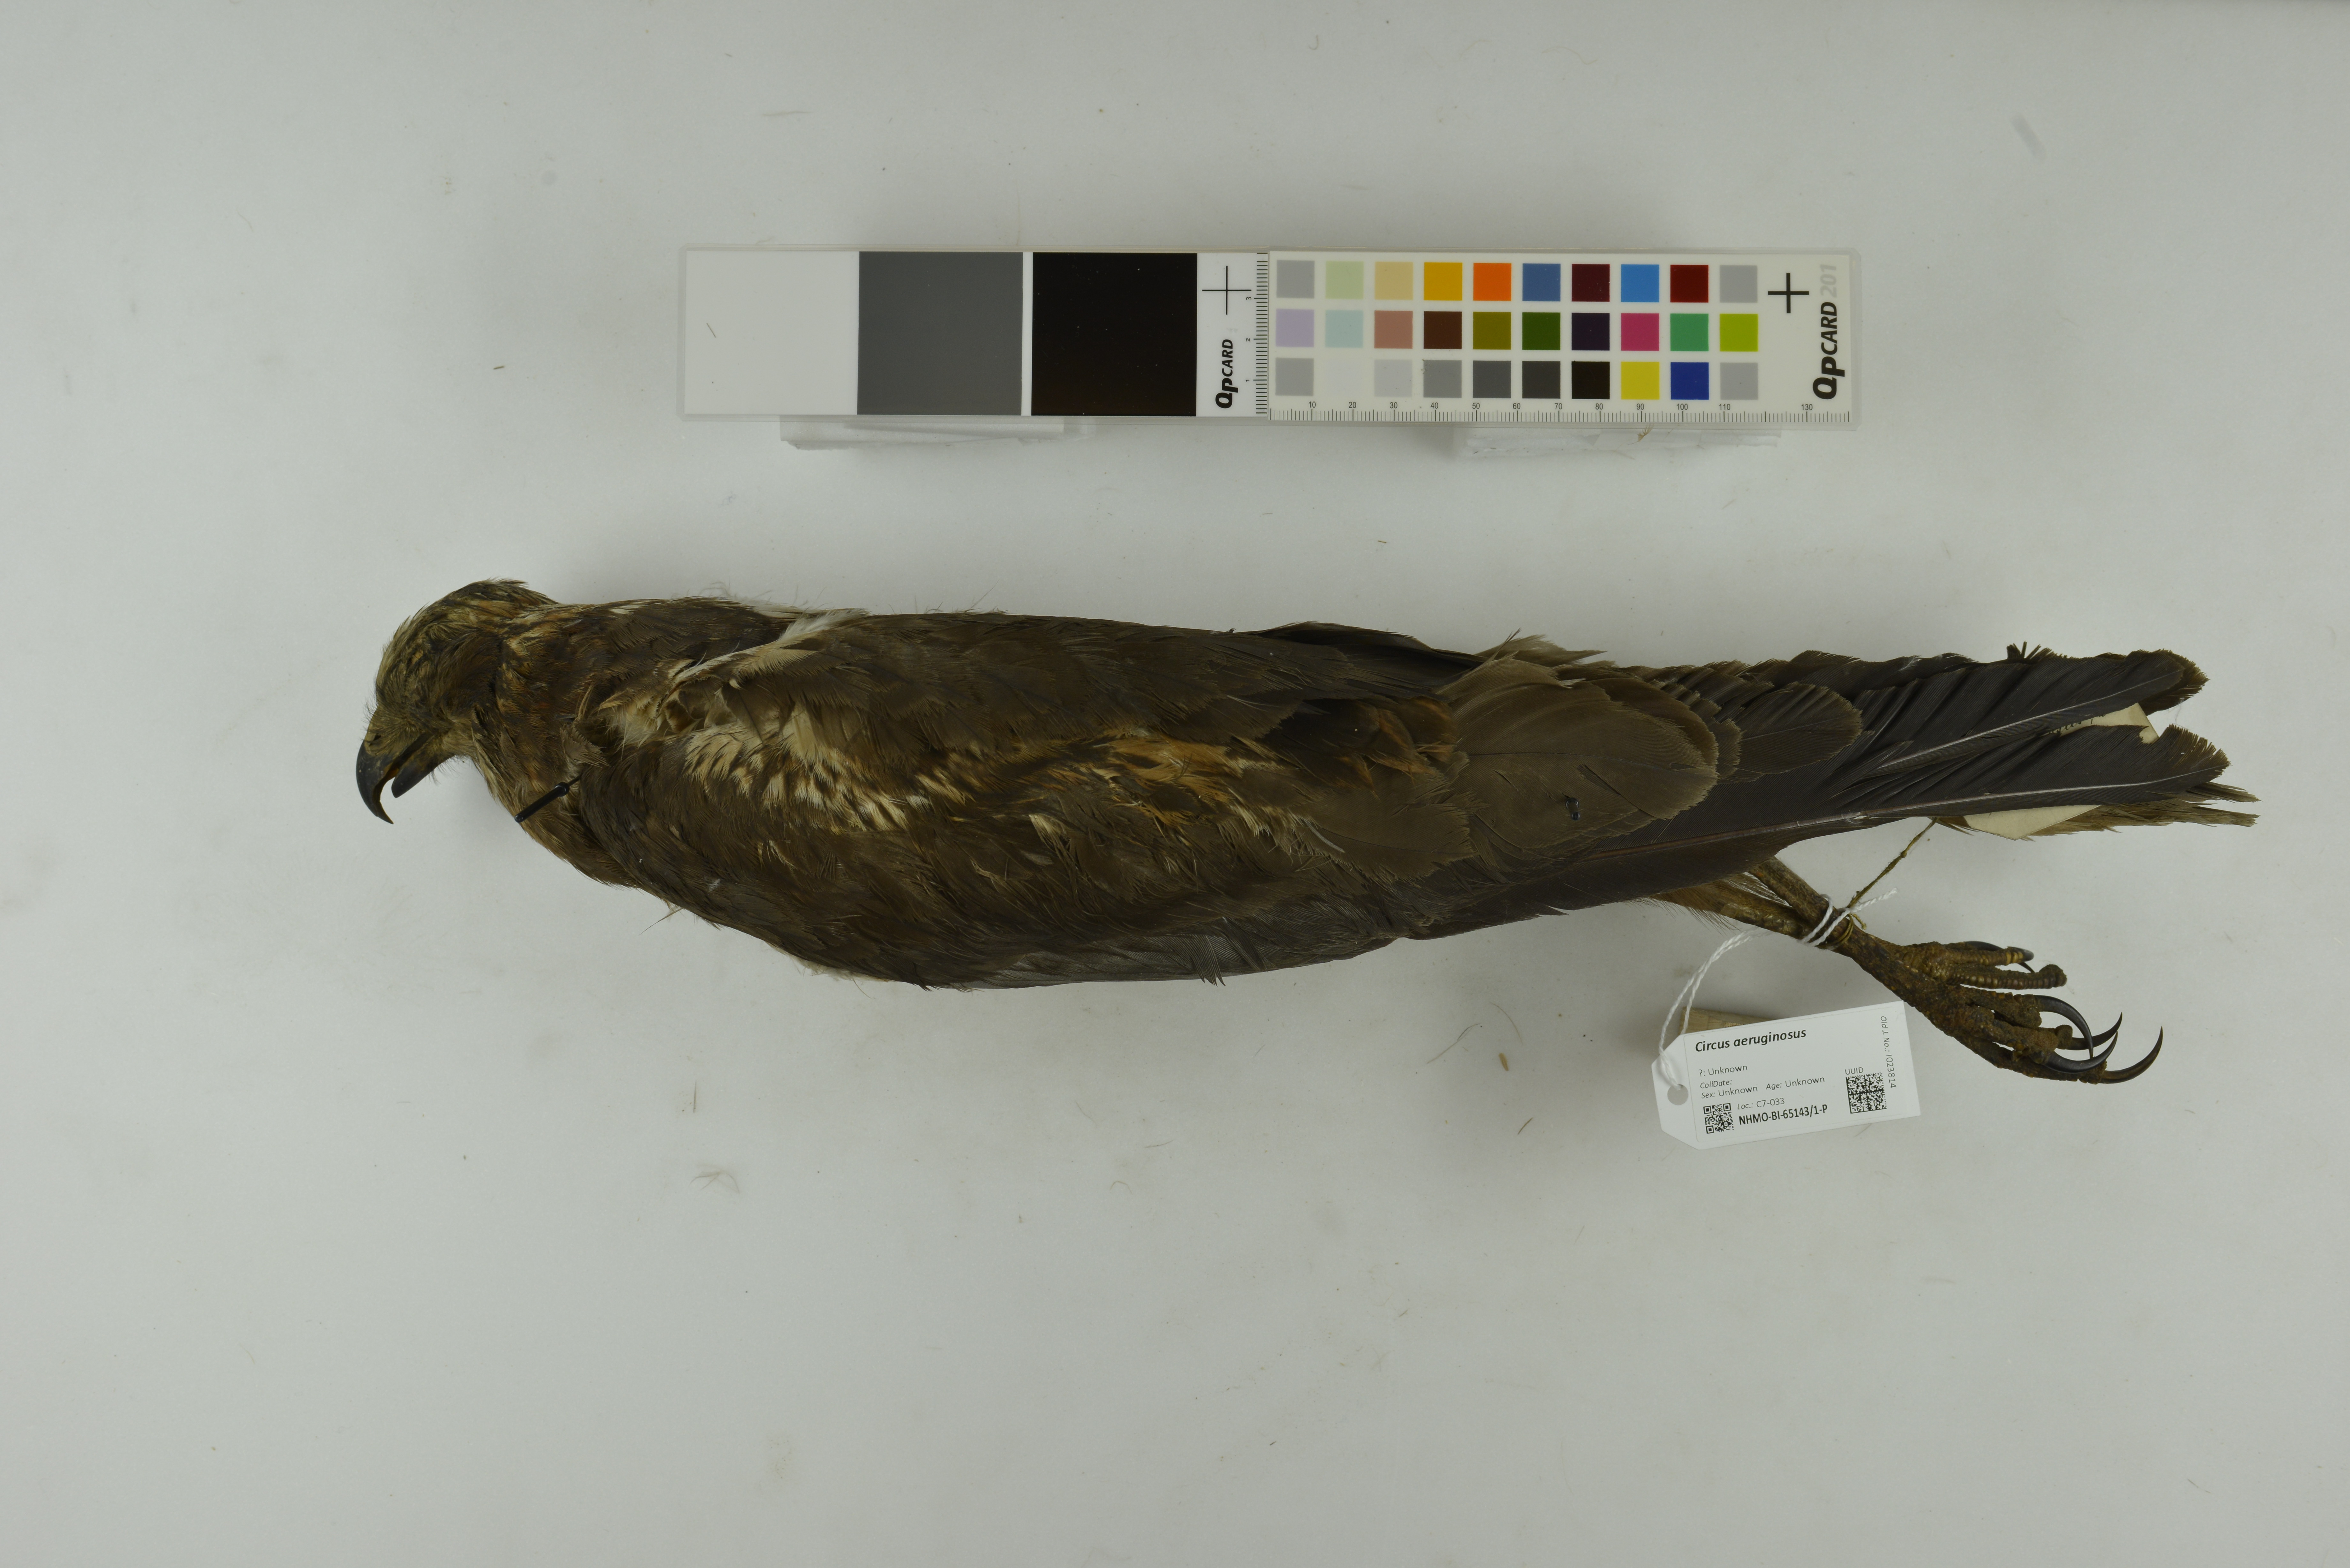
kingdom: Animalia
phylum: Chordata
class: Aves
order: Accipitriformes
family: Accipitridae
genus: Circus
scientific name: Circus aeruginosus
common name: Western marsh harrier
